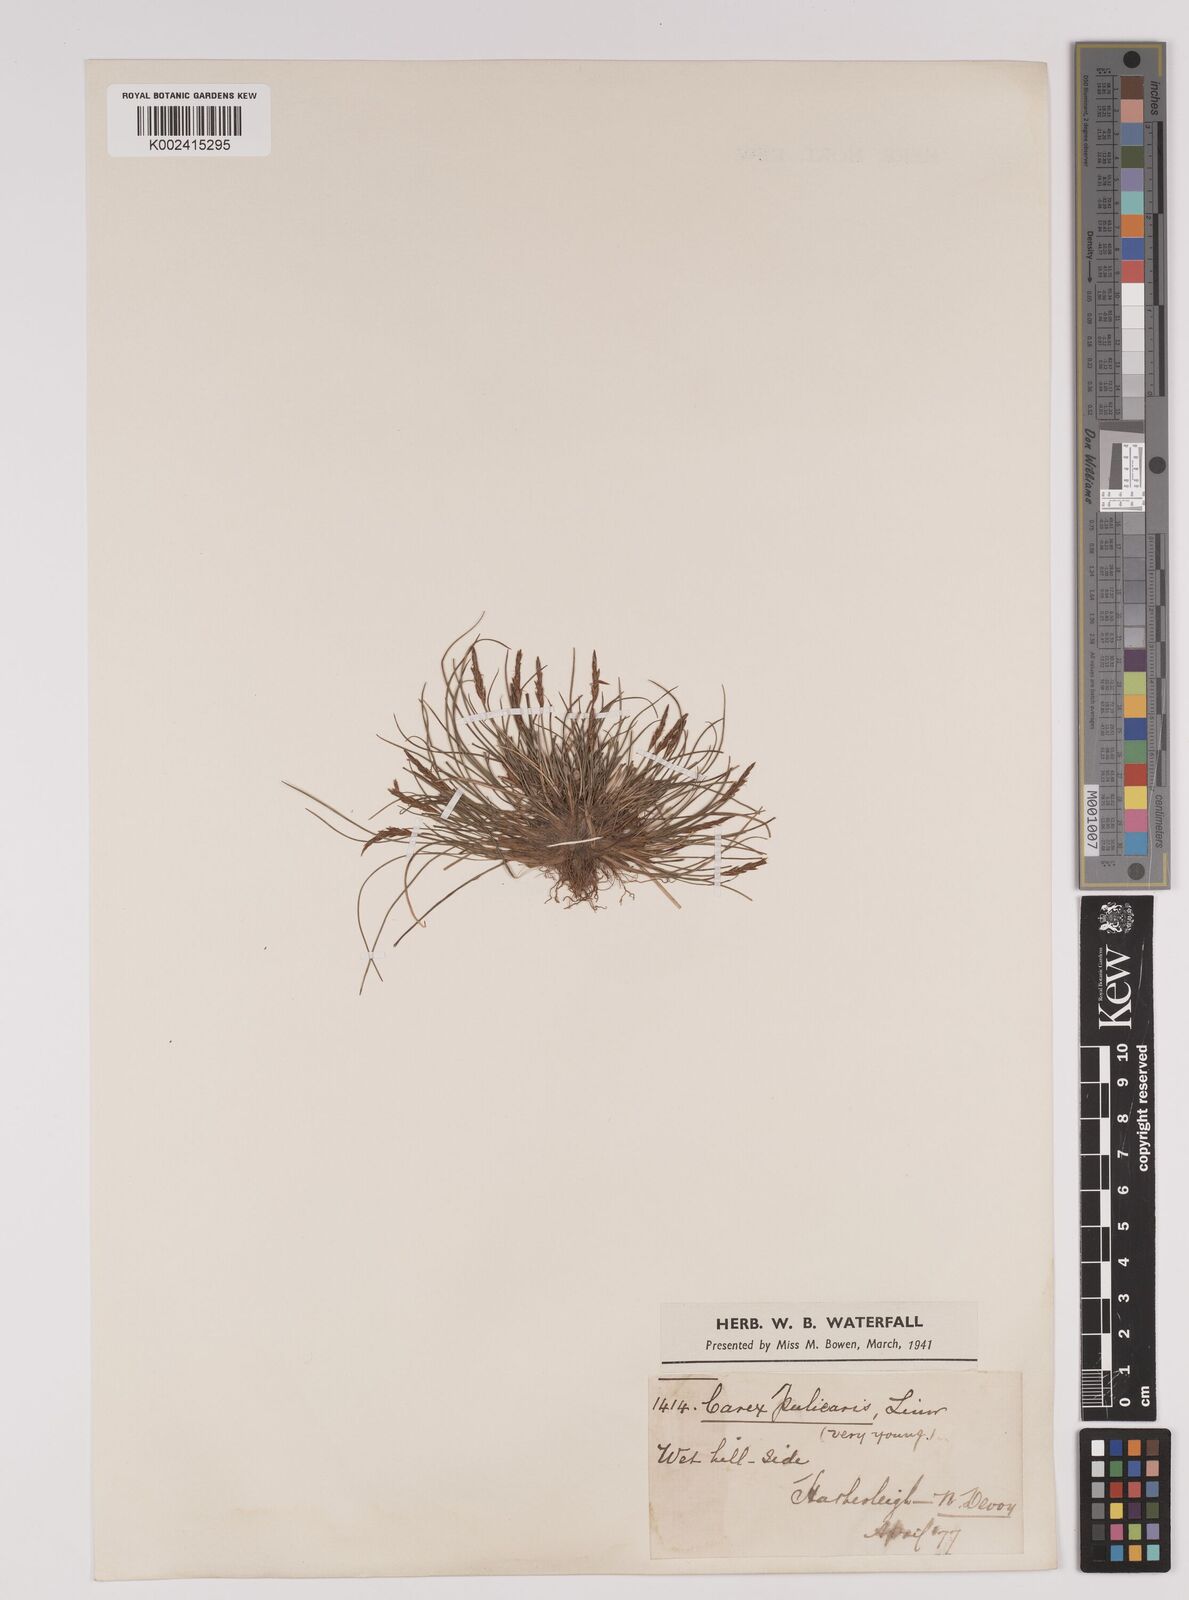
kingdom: Plantae
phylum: Tracheophyta
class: Liliopsida
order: Poales
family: Cyperaceae
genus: Carex
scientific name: Carex pulicaris
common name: Flea sedge
